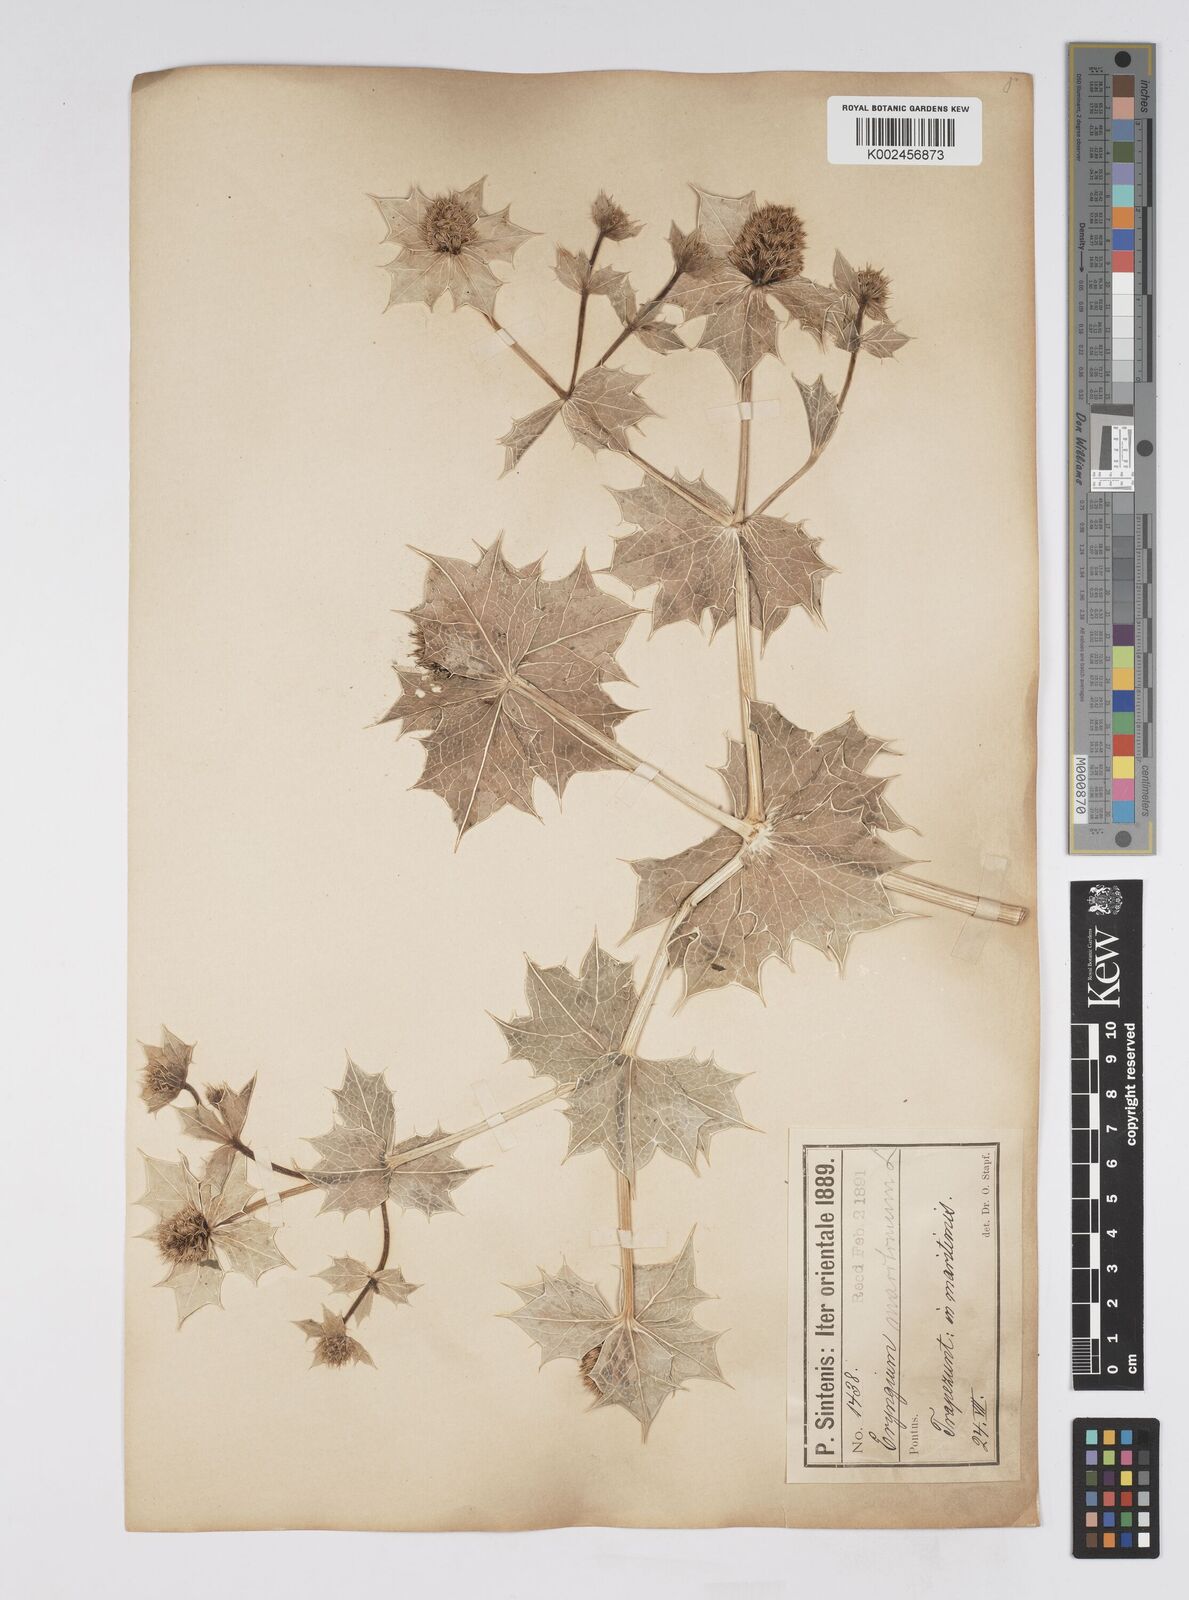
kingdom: Plantae
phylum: Tracheophyta
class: Magnoliopsida
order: Apiales
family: Apiaceae
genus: Eryngium
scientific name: Eryngium maritimum
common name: Sea-holly
